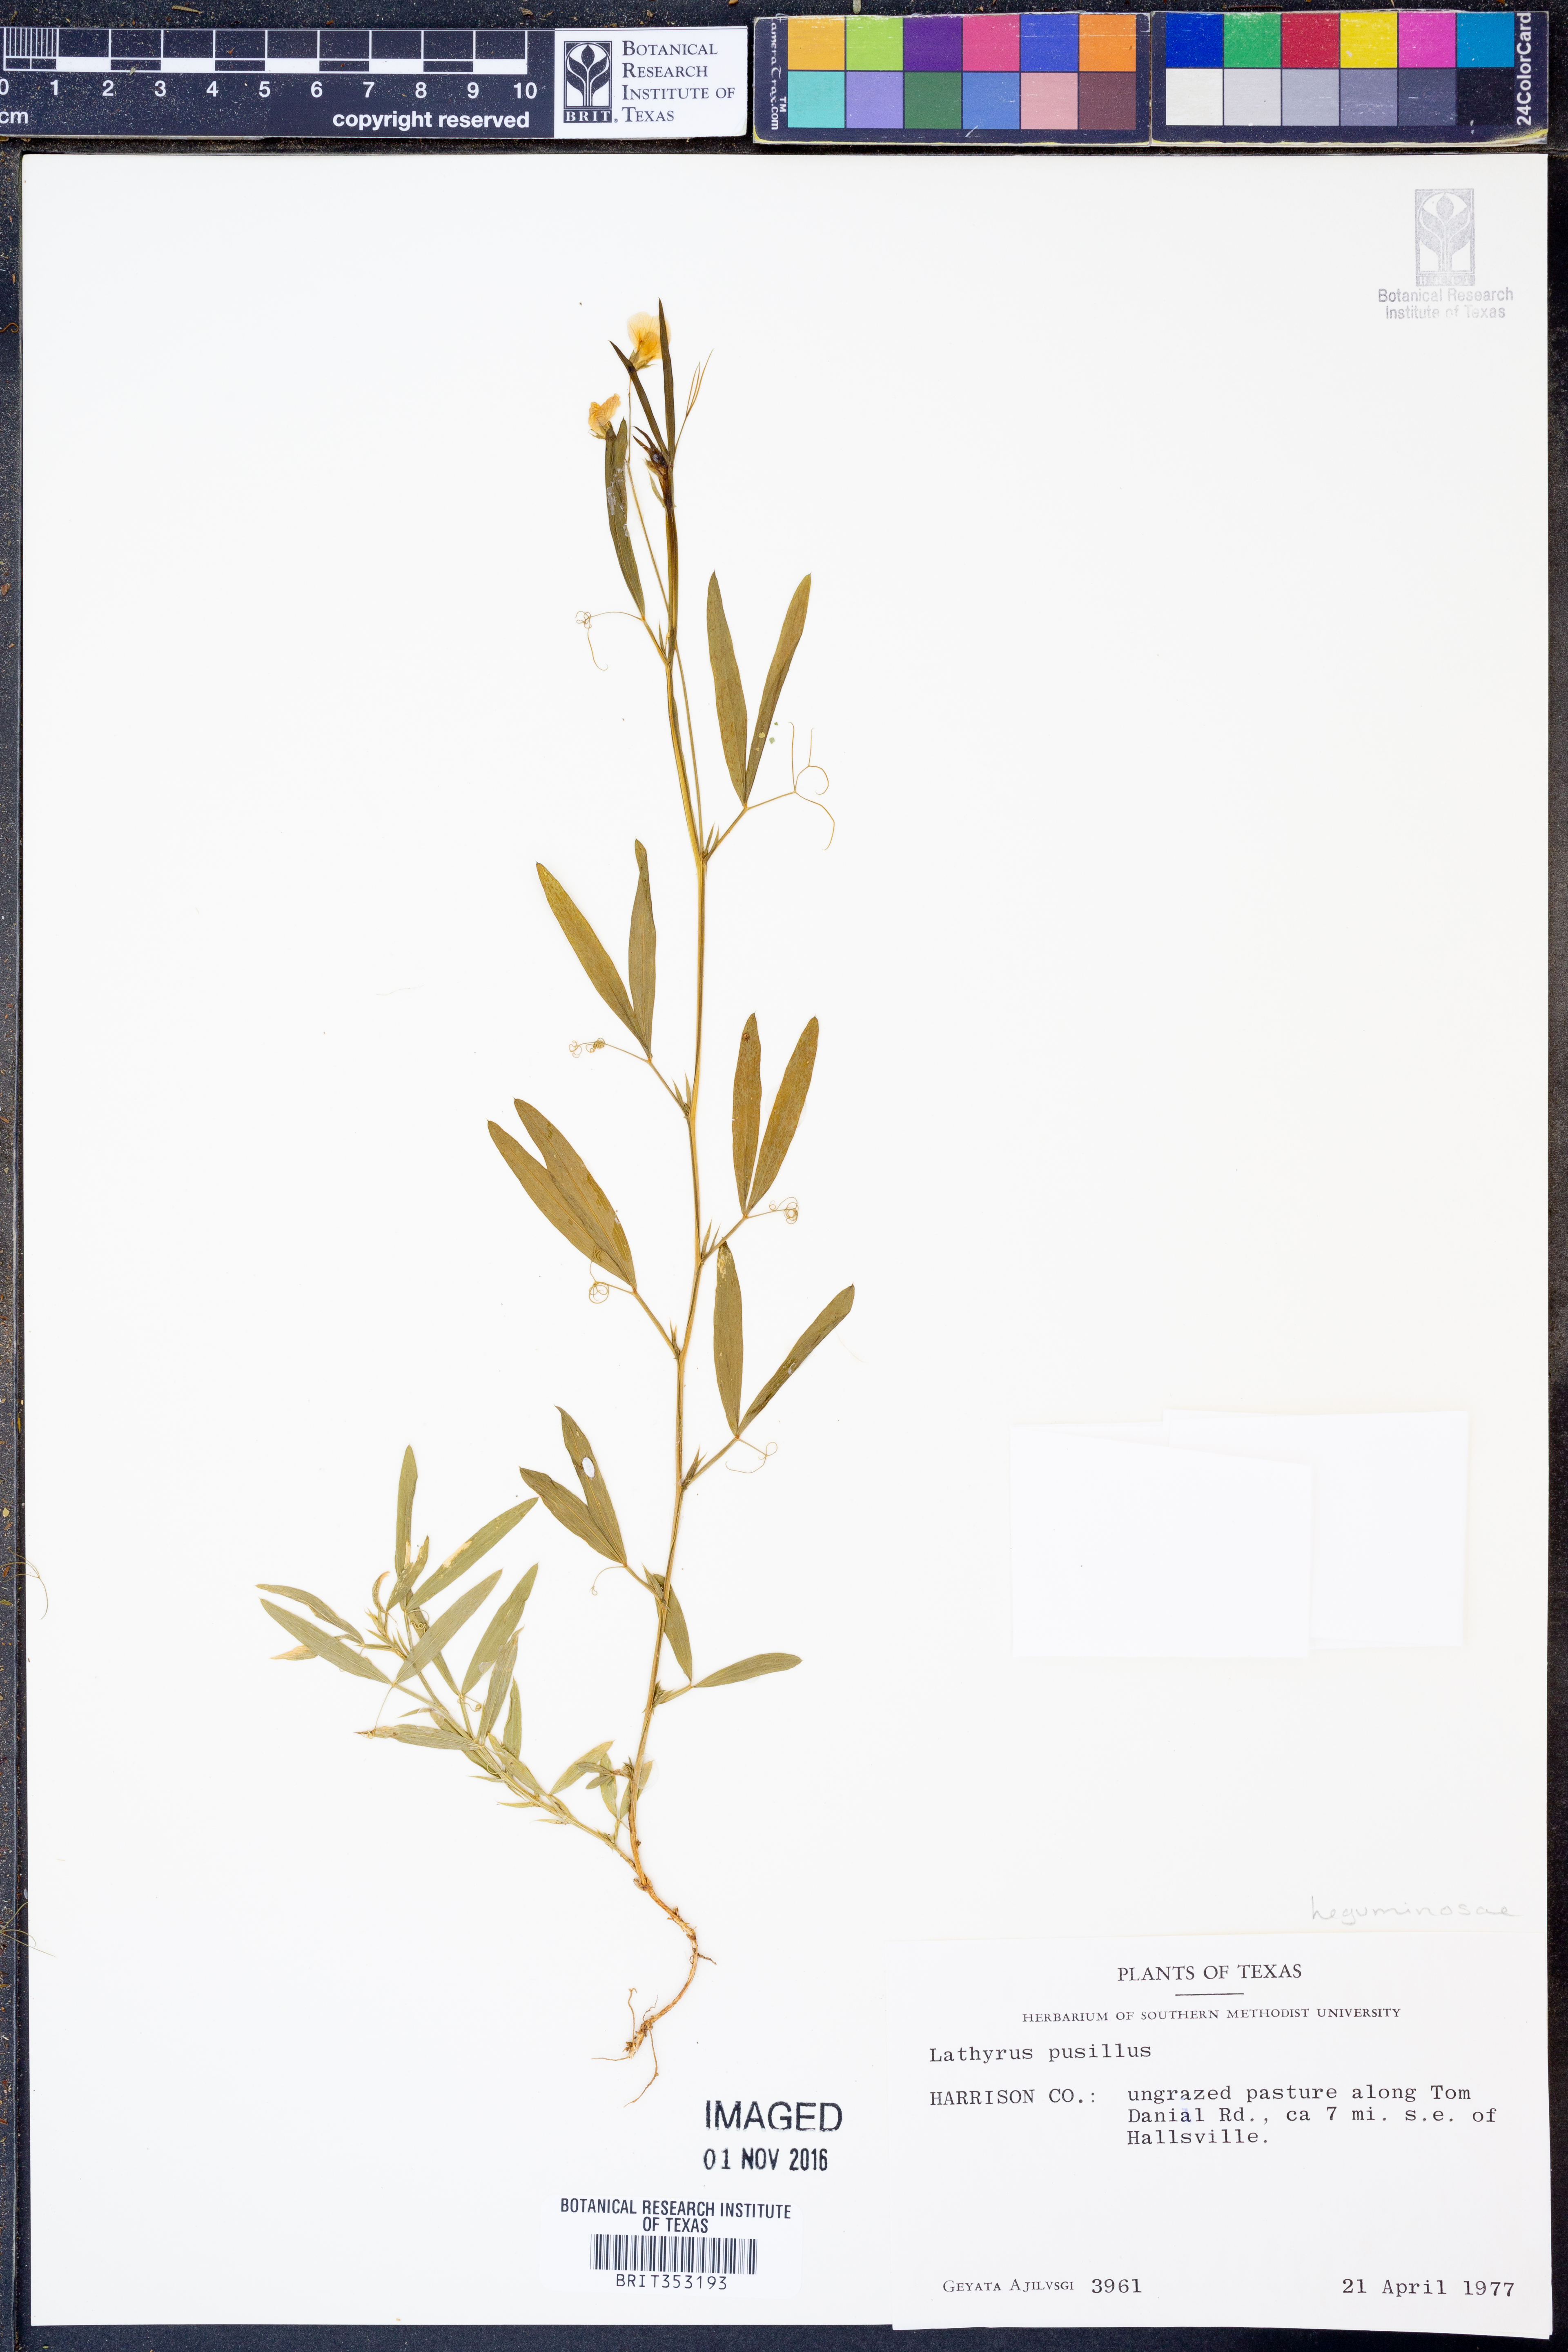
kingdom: Plantae
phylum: Tracheophyta
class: Magnoliopsida
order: Fabales
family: Fabaceae
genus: Lathyrus
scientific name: Lathyrus pusillus
